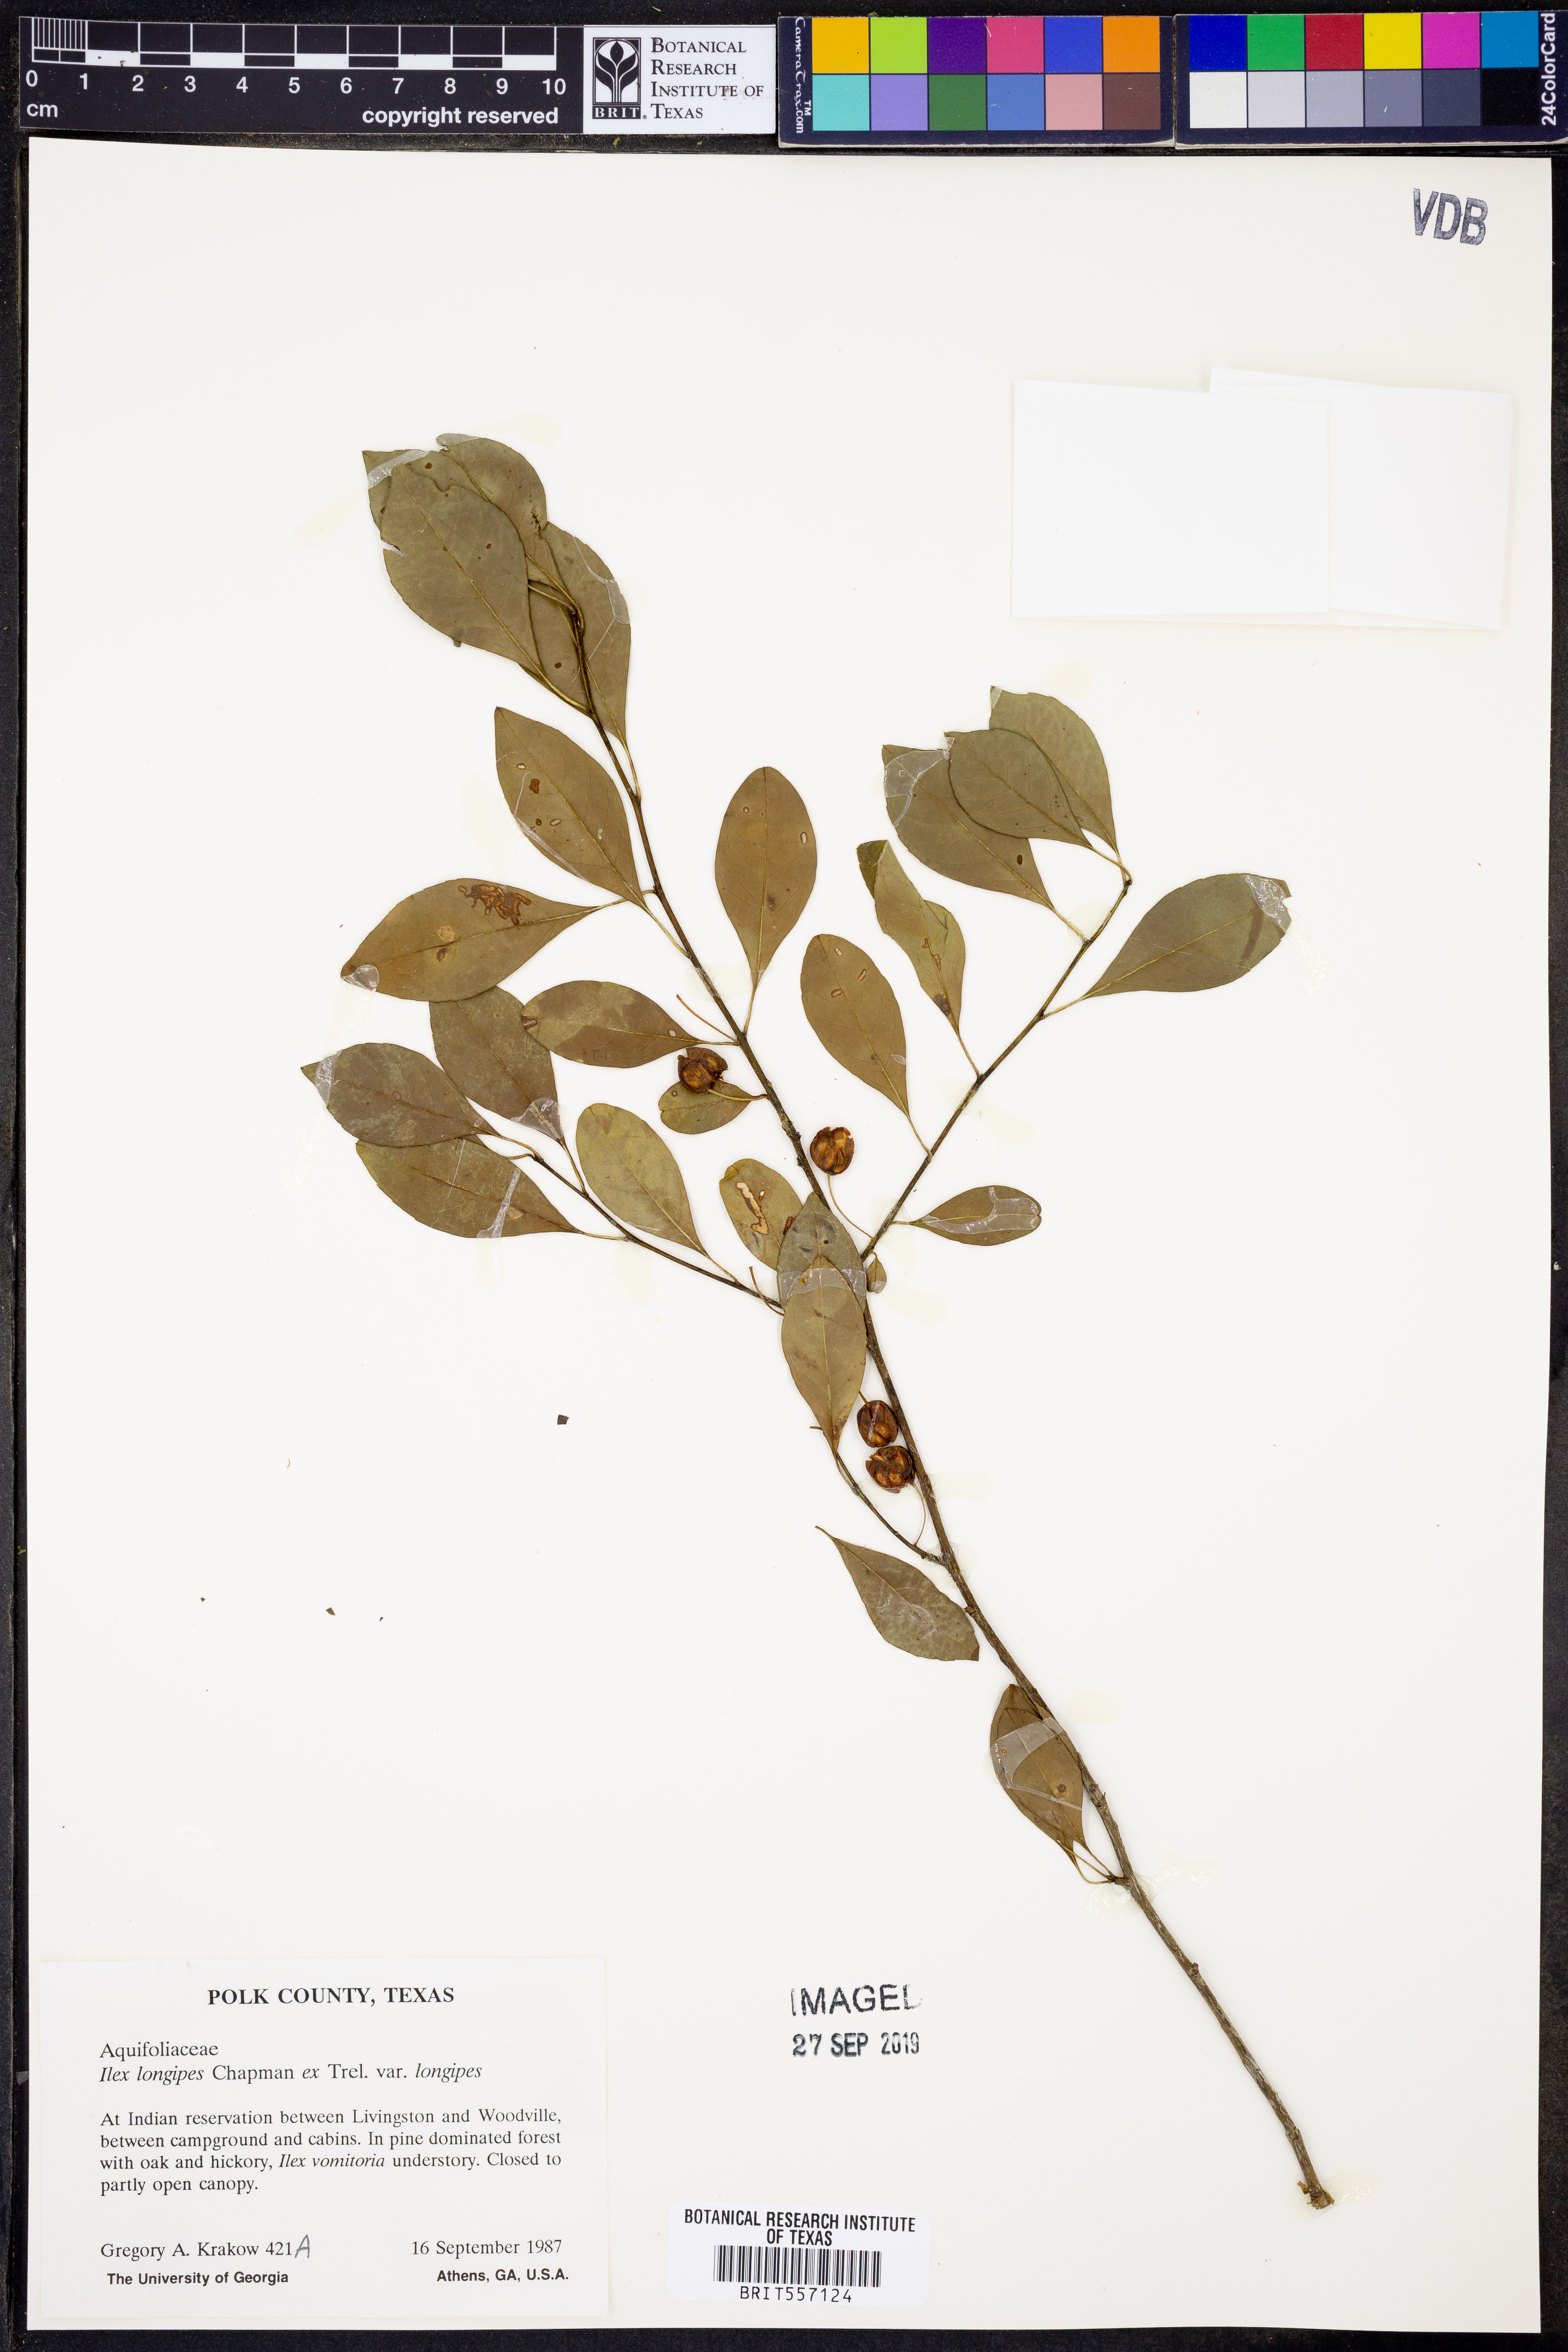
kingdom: Plantae
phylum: Tracheophyta
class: Magnoliopsida
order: Aquifoliales
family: Aquifoliaceae
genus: Ilex
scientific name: Ilex longipes
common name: Georgia holly
